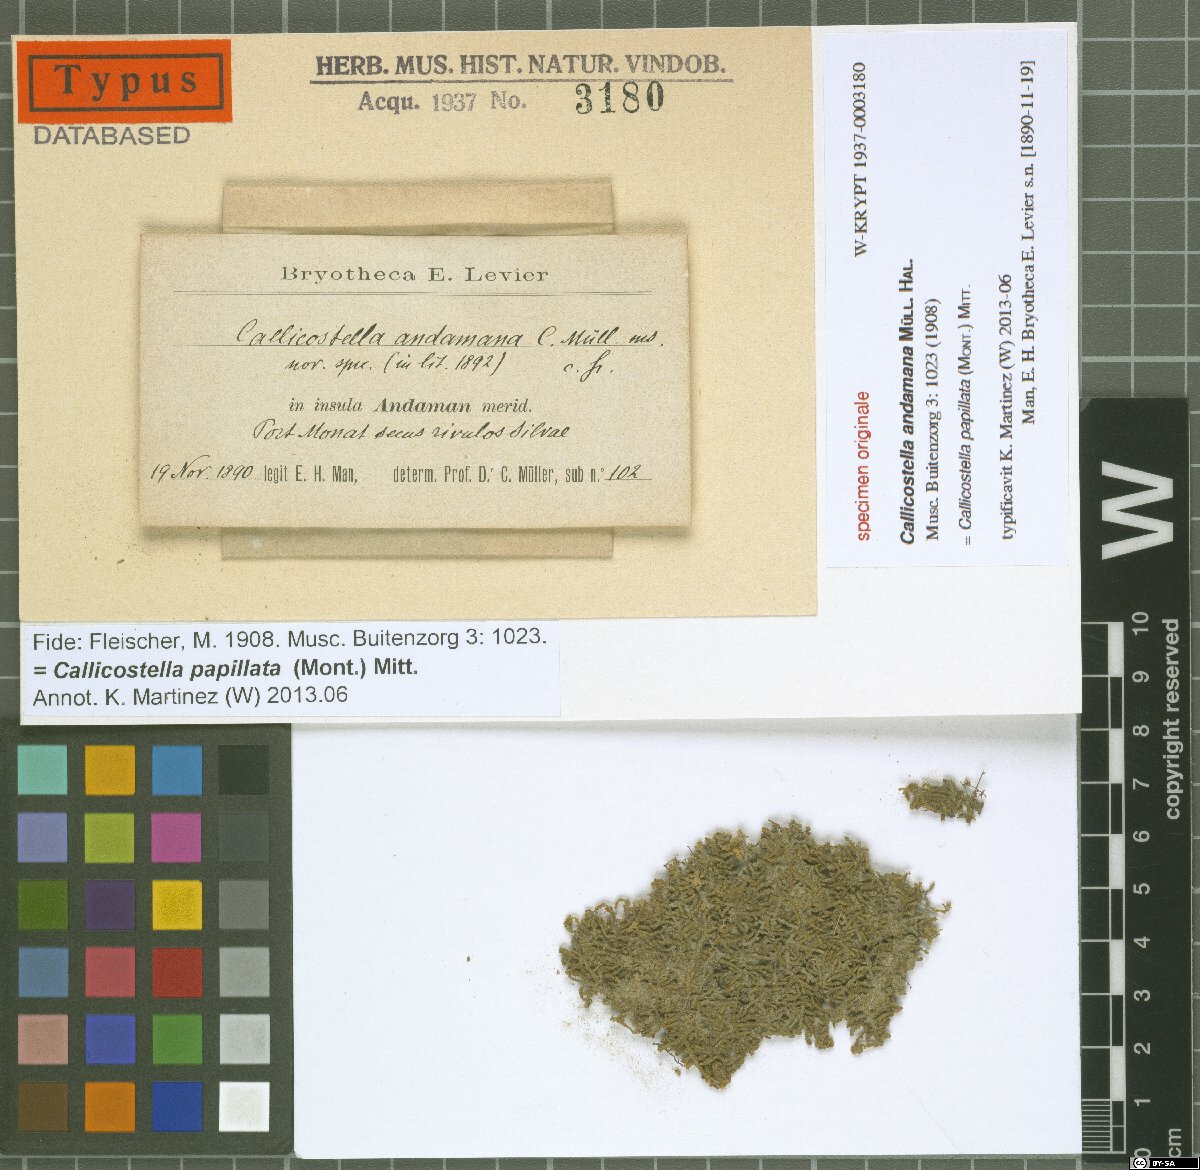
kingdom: Plantae
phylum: Bryophyta
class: Bryopsida
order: Hookeriales
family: Pilotrichaceae
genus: Callicostella
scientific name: Callicostella papillata
